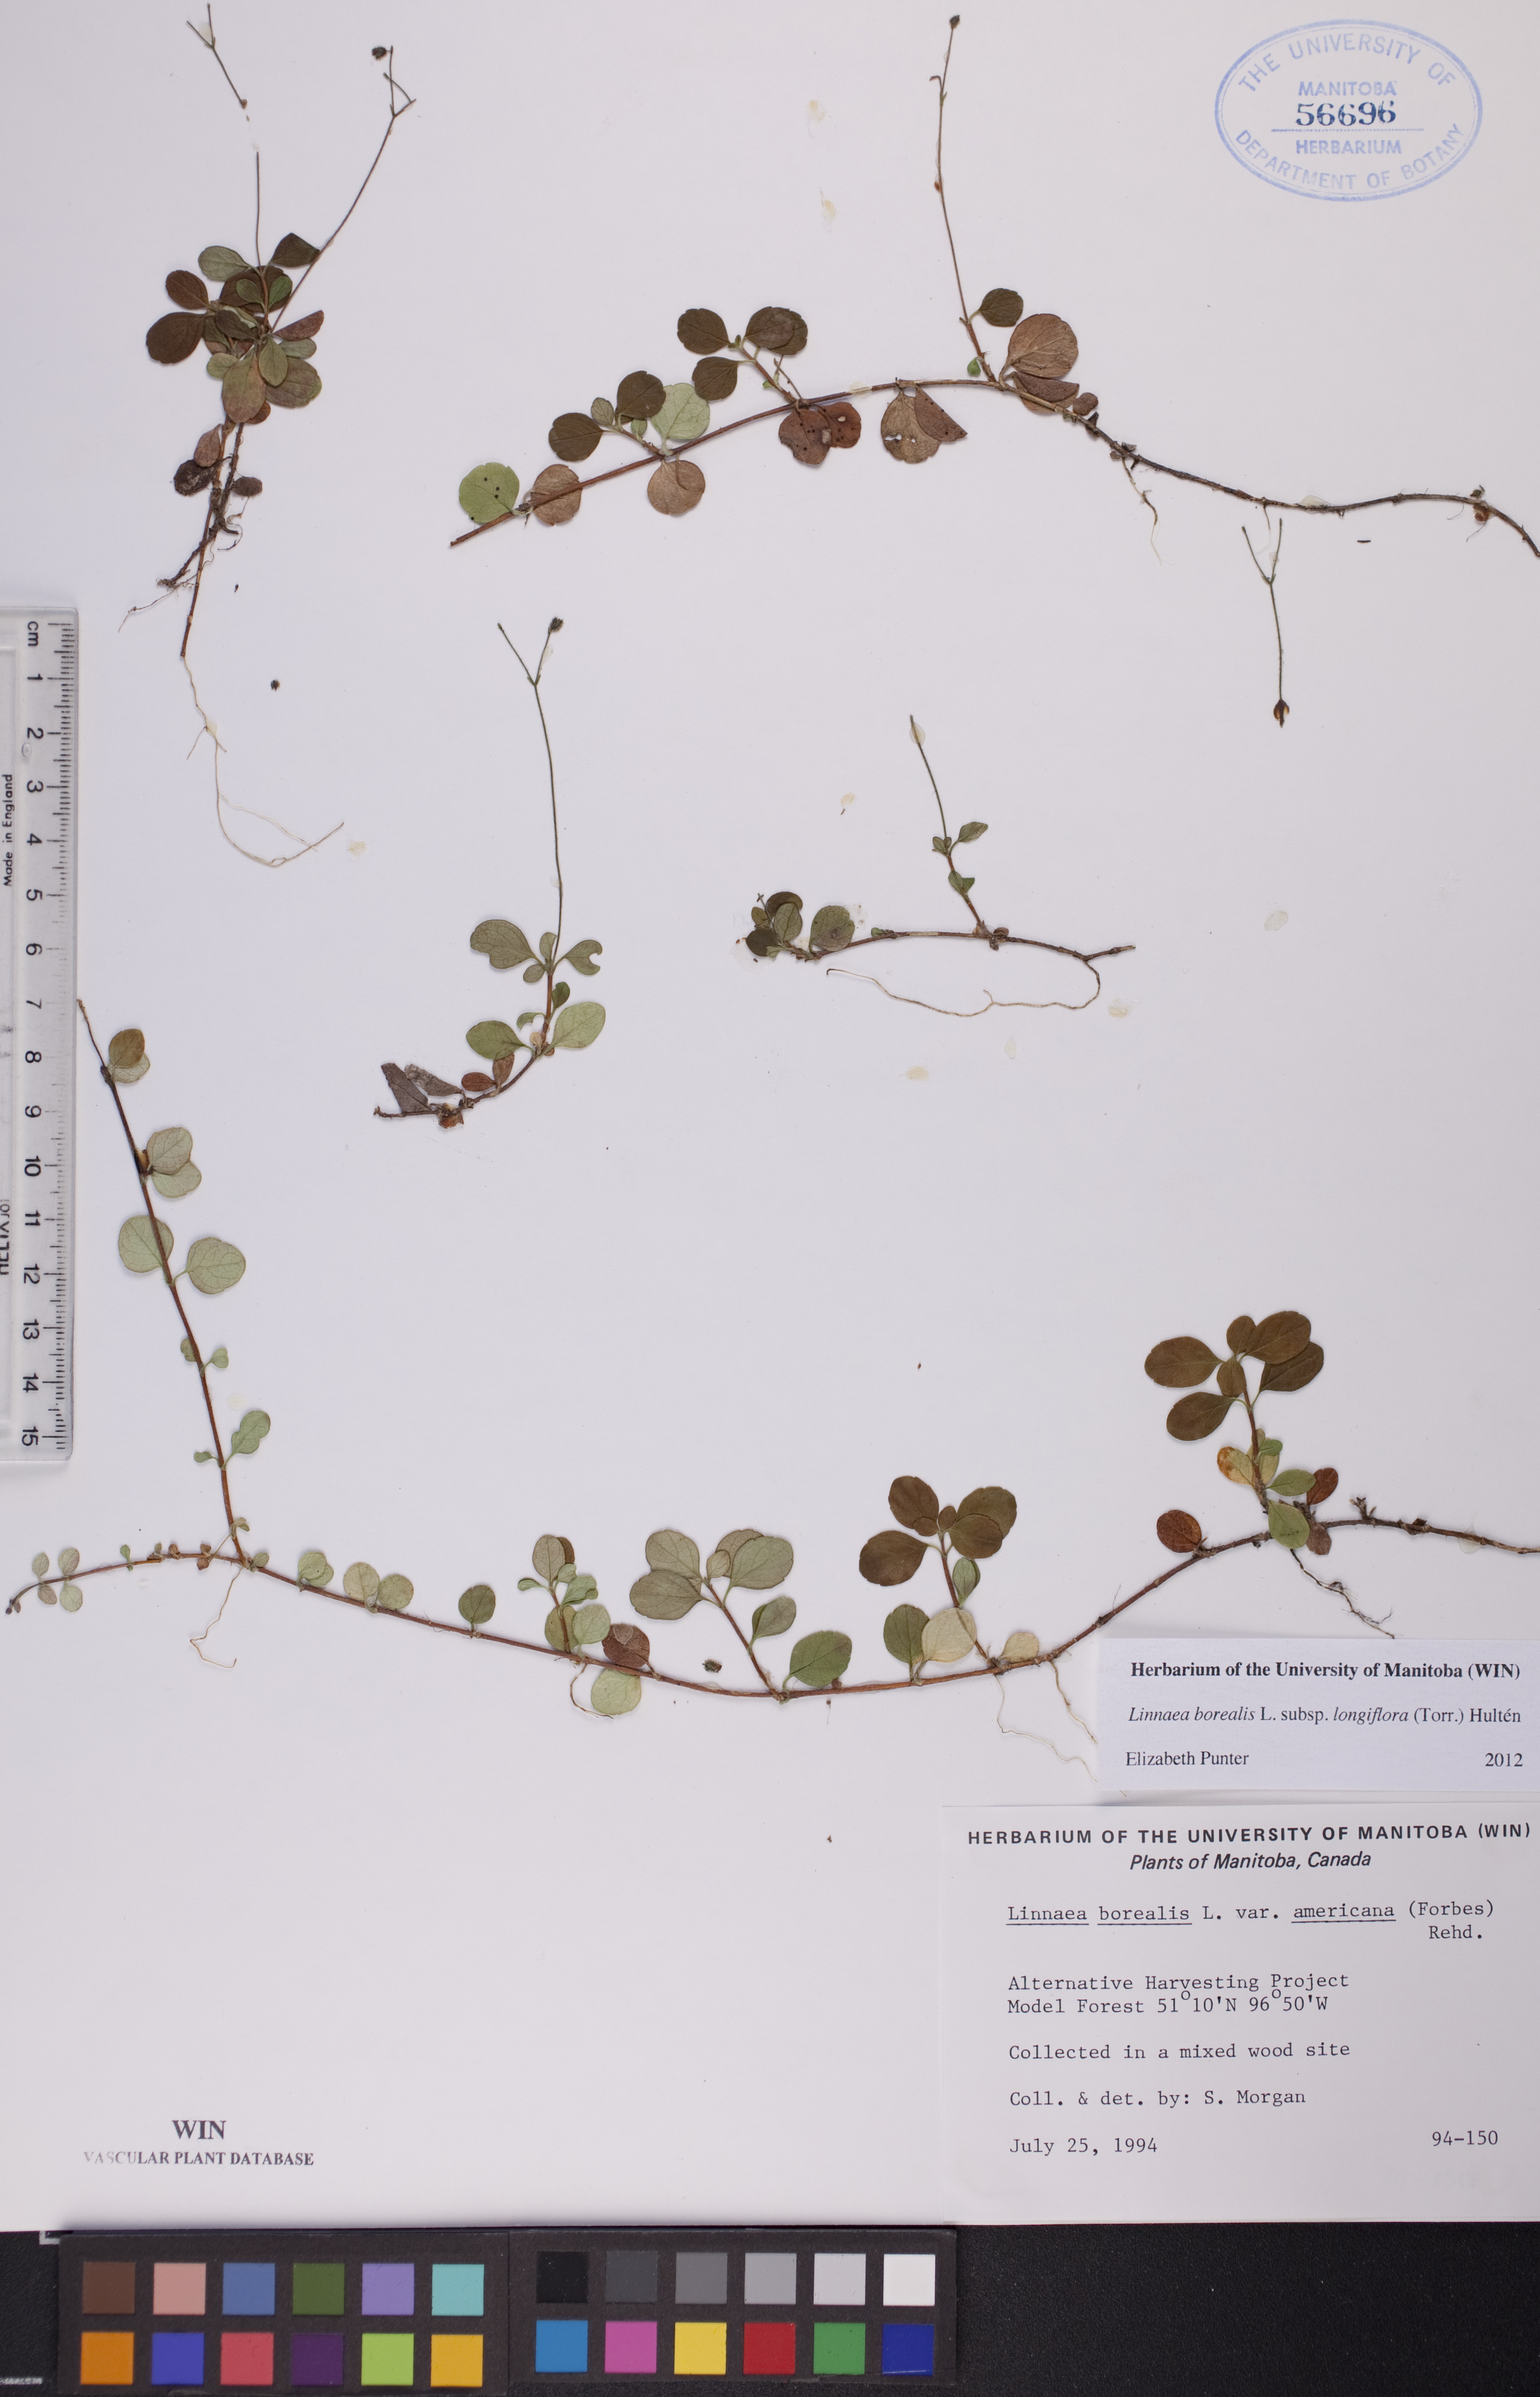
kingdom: Plantae
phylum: Tracheophyta
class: Magnoliopsida
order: Dipsacales
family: Caprifoliaceae
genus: Linnaea
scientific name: Linnaea borealis
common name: Twinflower
